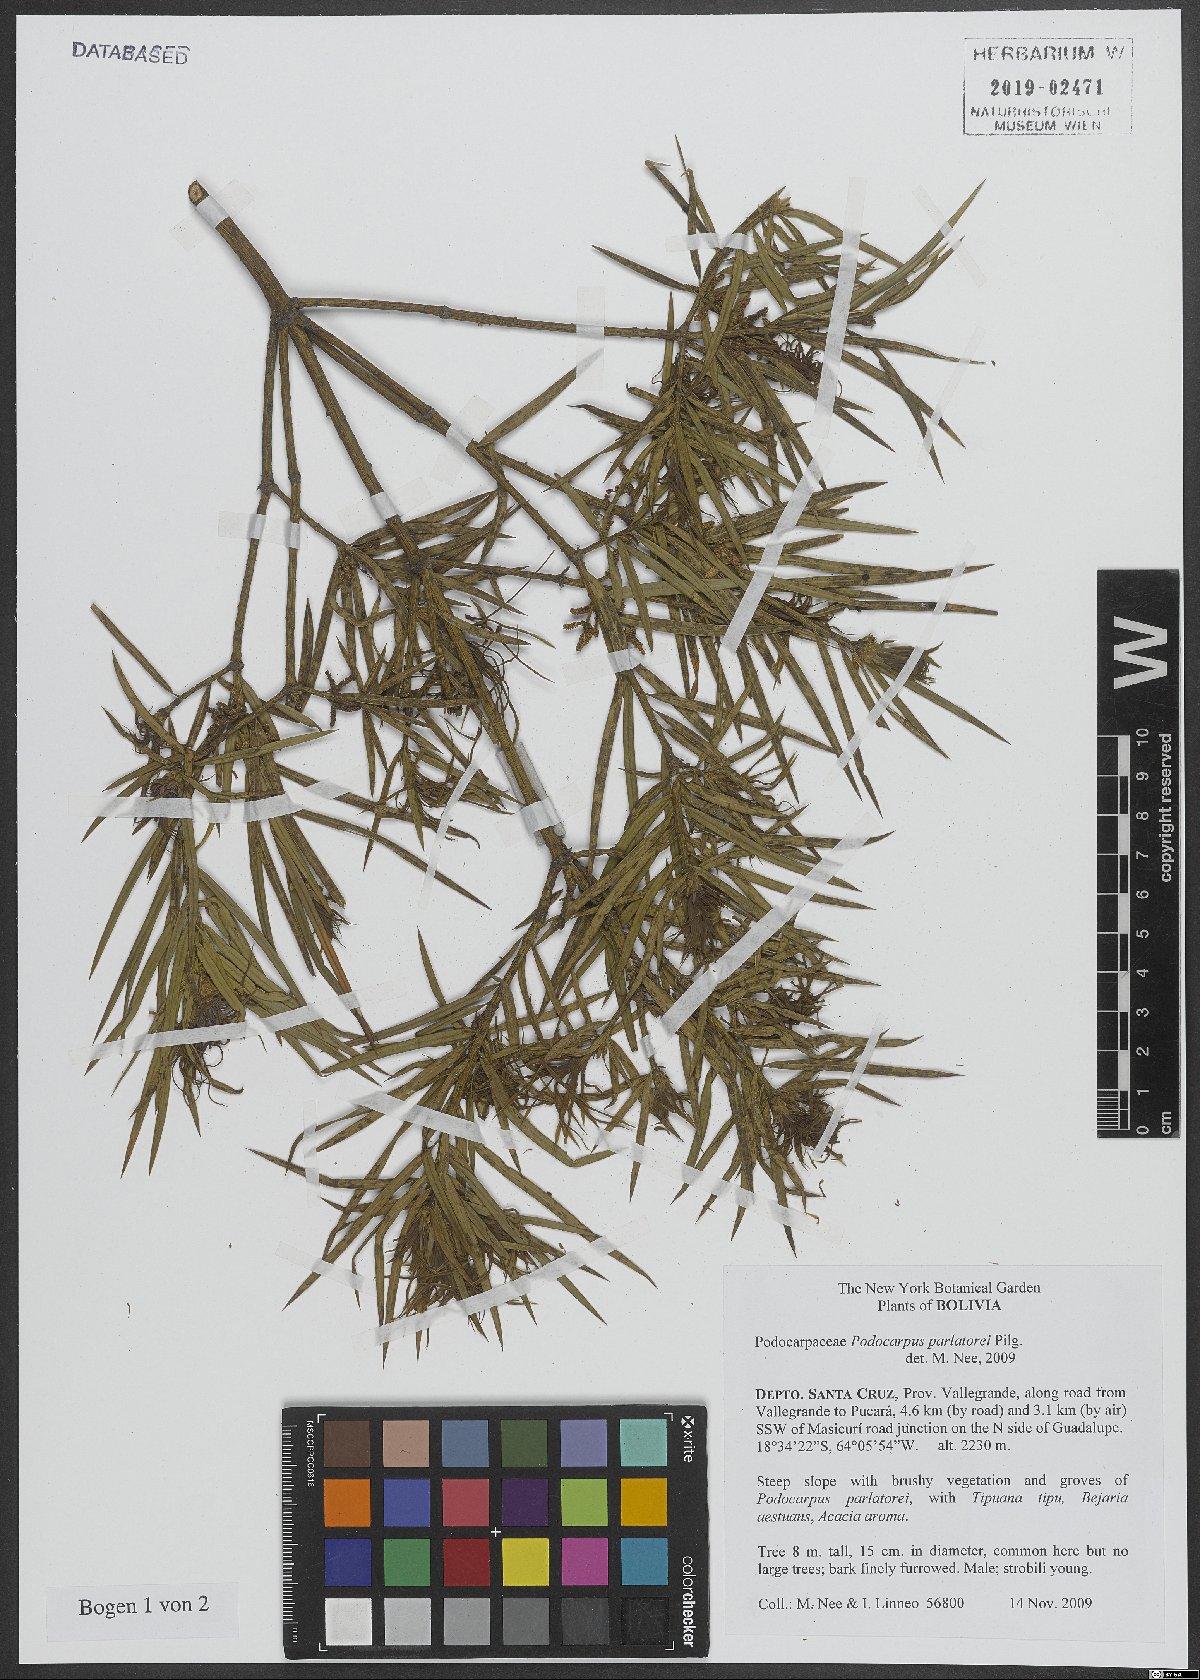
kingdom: Plantae
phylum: Tracheophyta
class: Pinopsida
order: Pinales
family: Podocarpaceae
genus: Podocarpus
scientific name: Podocarpus parlatorei
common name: Pino blanco
